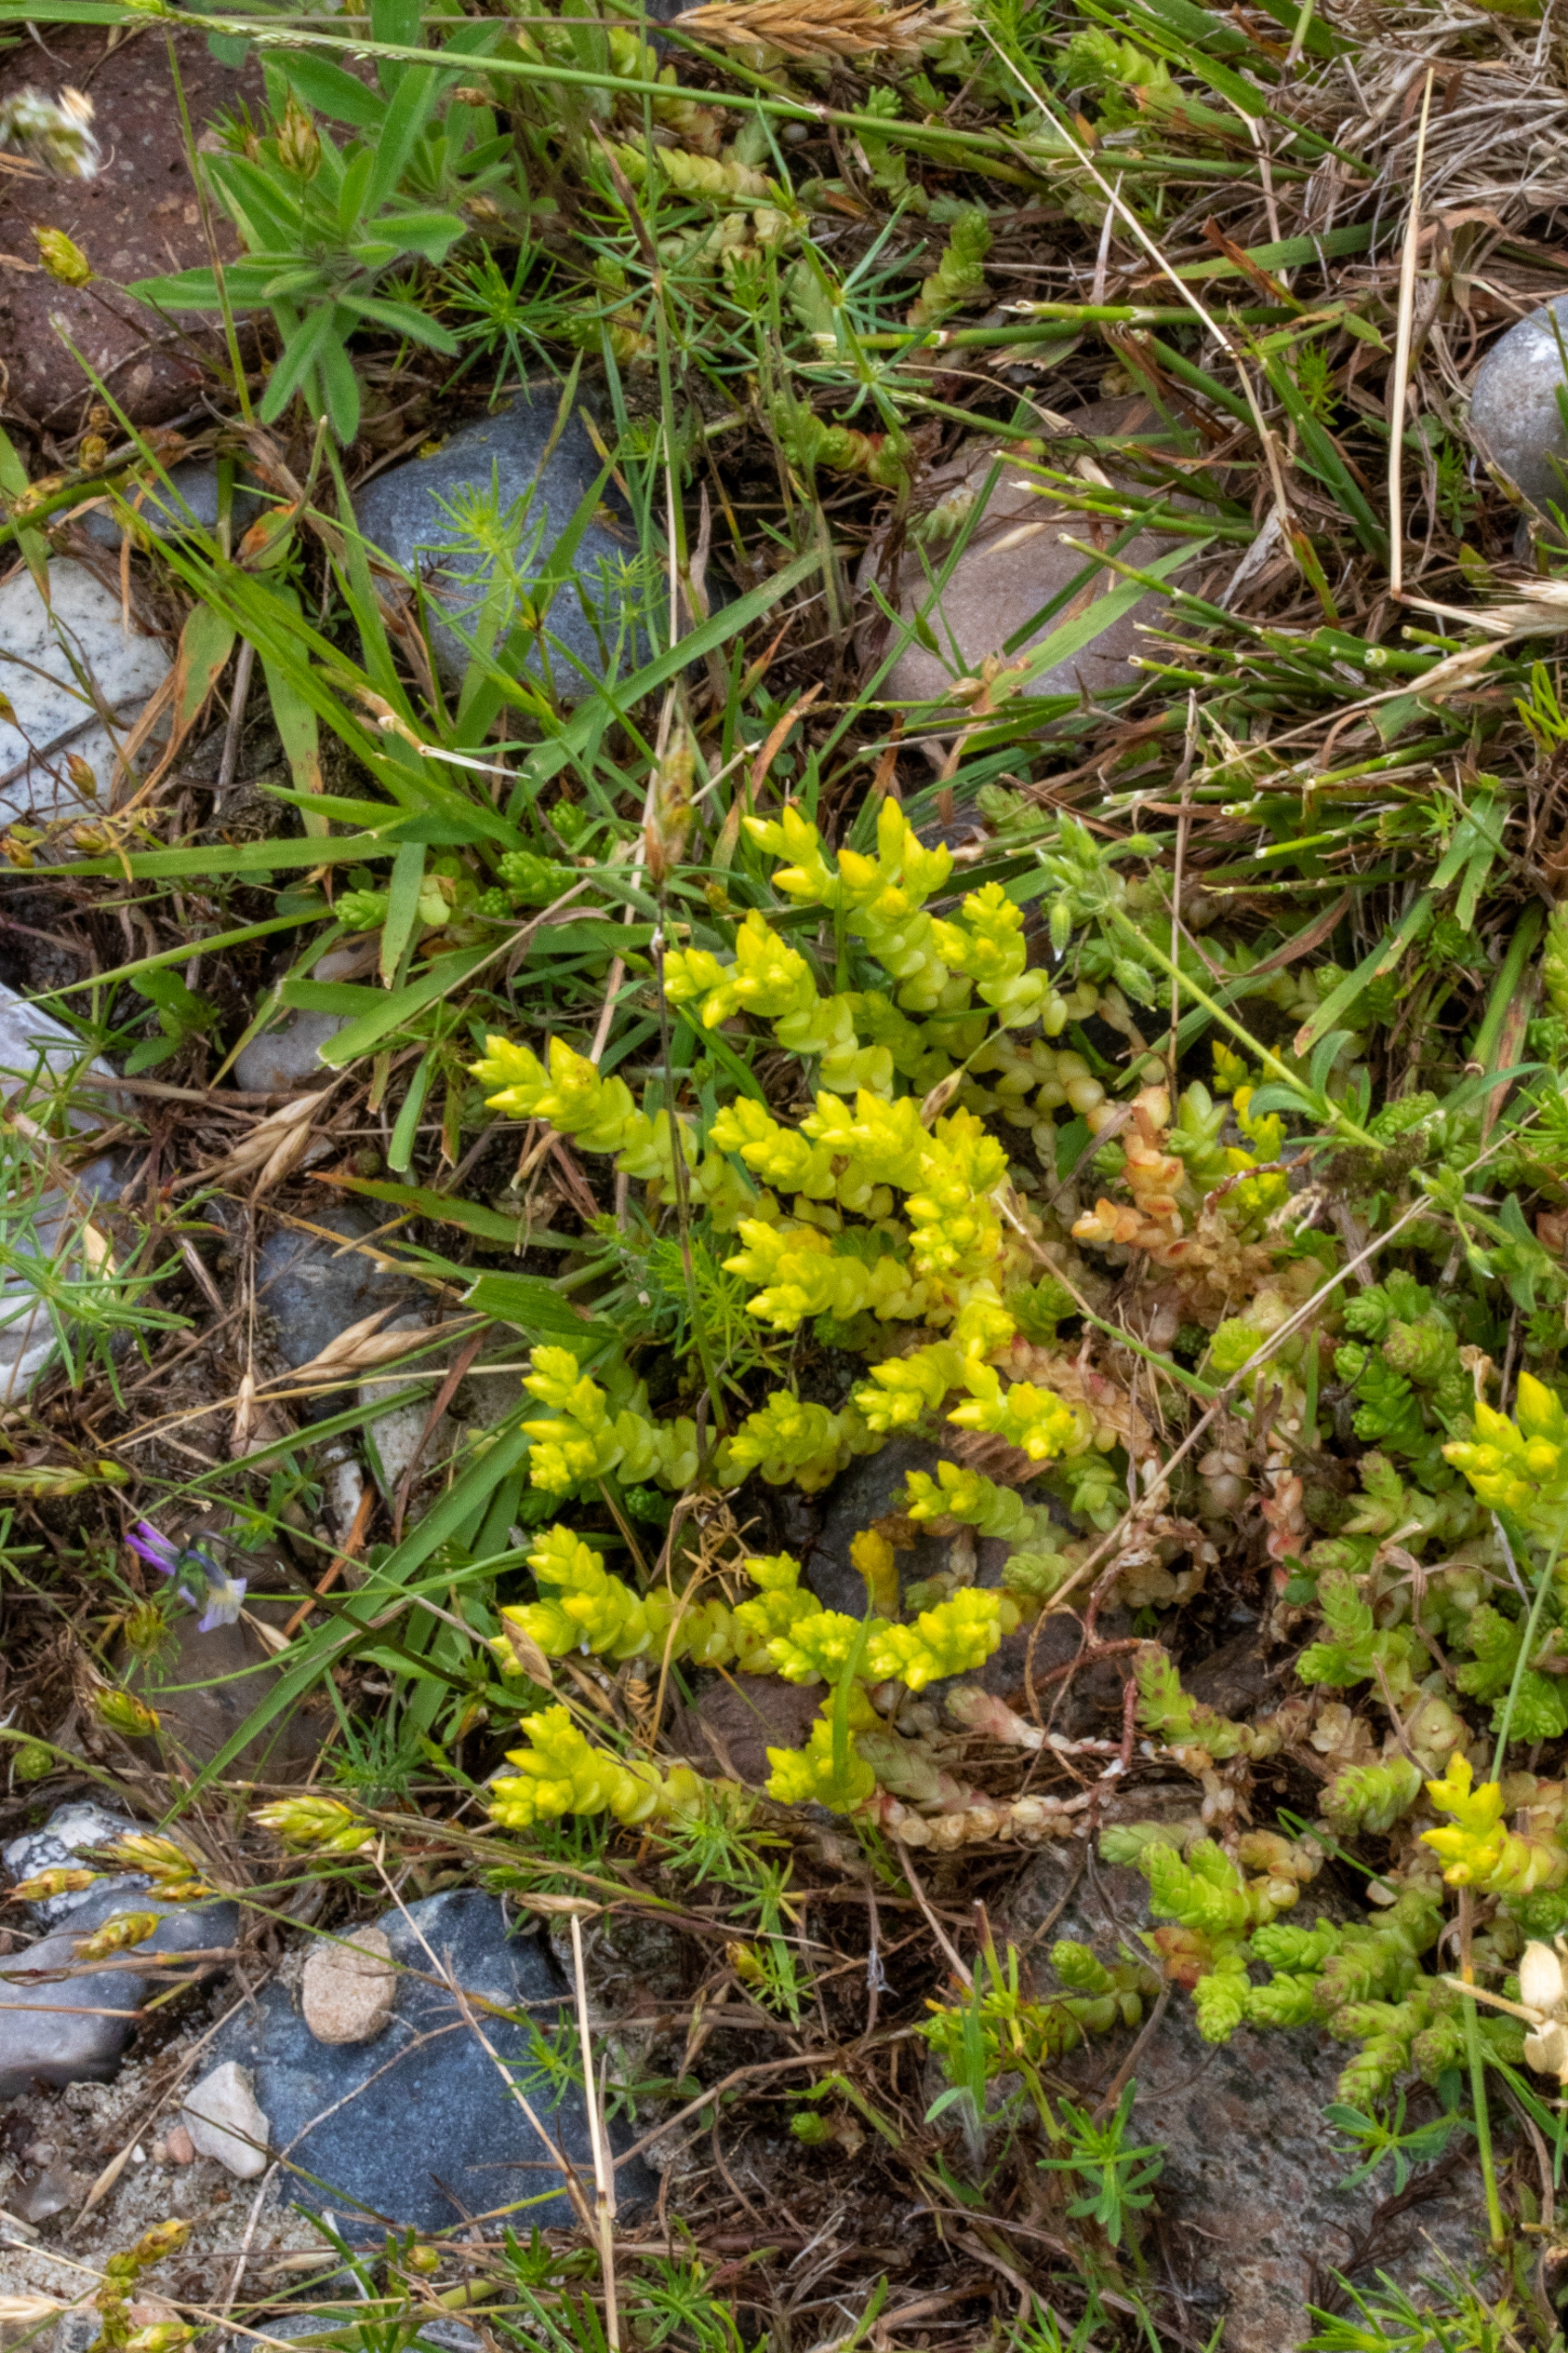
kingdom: Plantae
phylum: Tracheophyta
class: Magnoliopsida
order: Saxifragales
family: Crassulaceae
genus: Sedum
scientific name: Sedum acre
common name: Bidende stenurt
